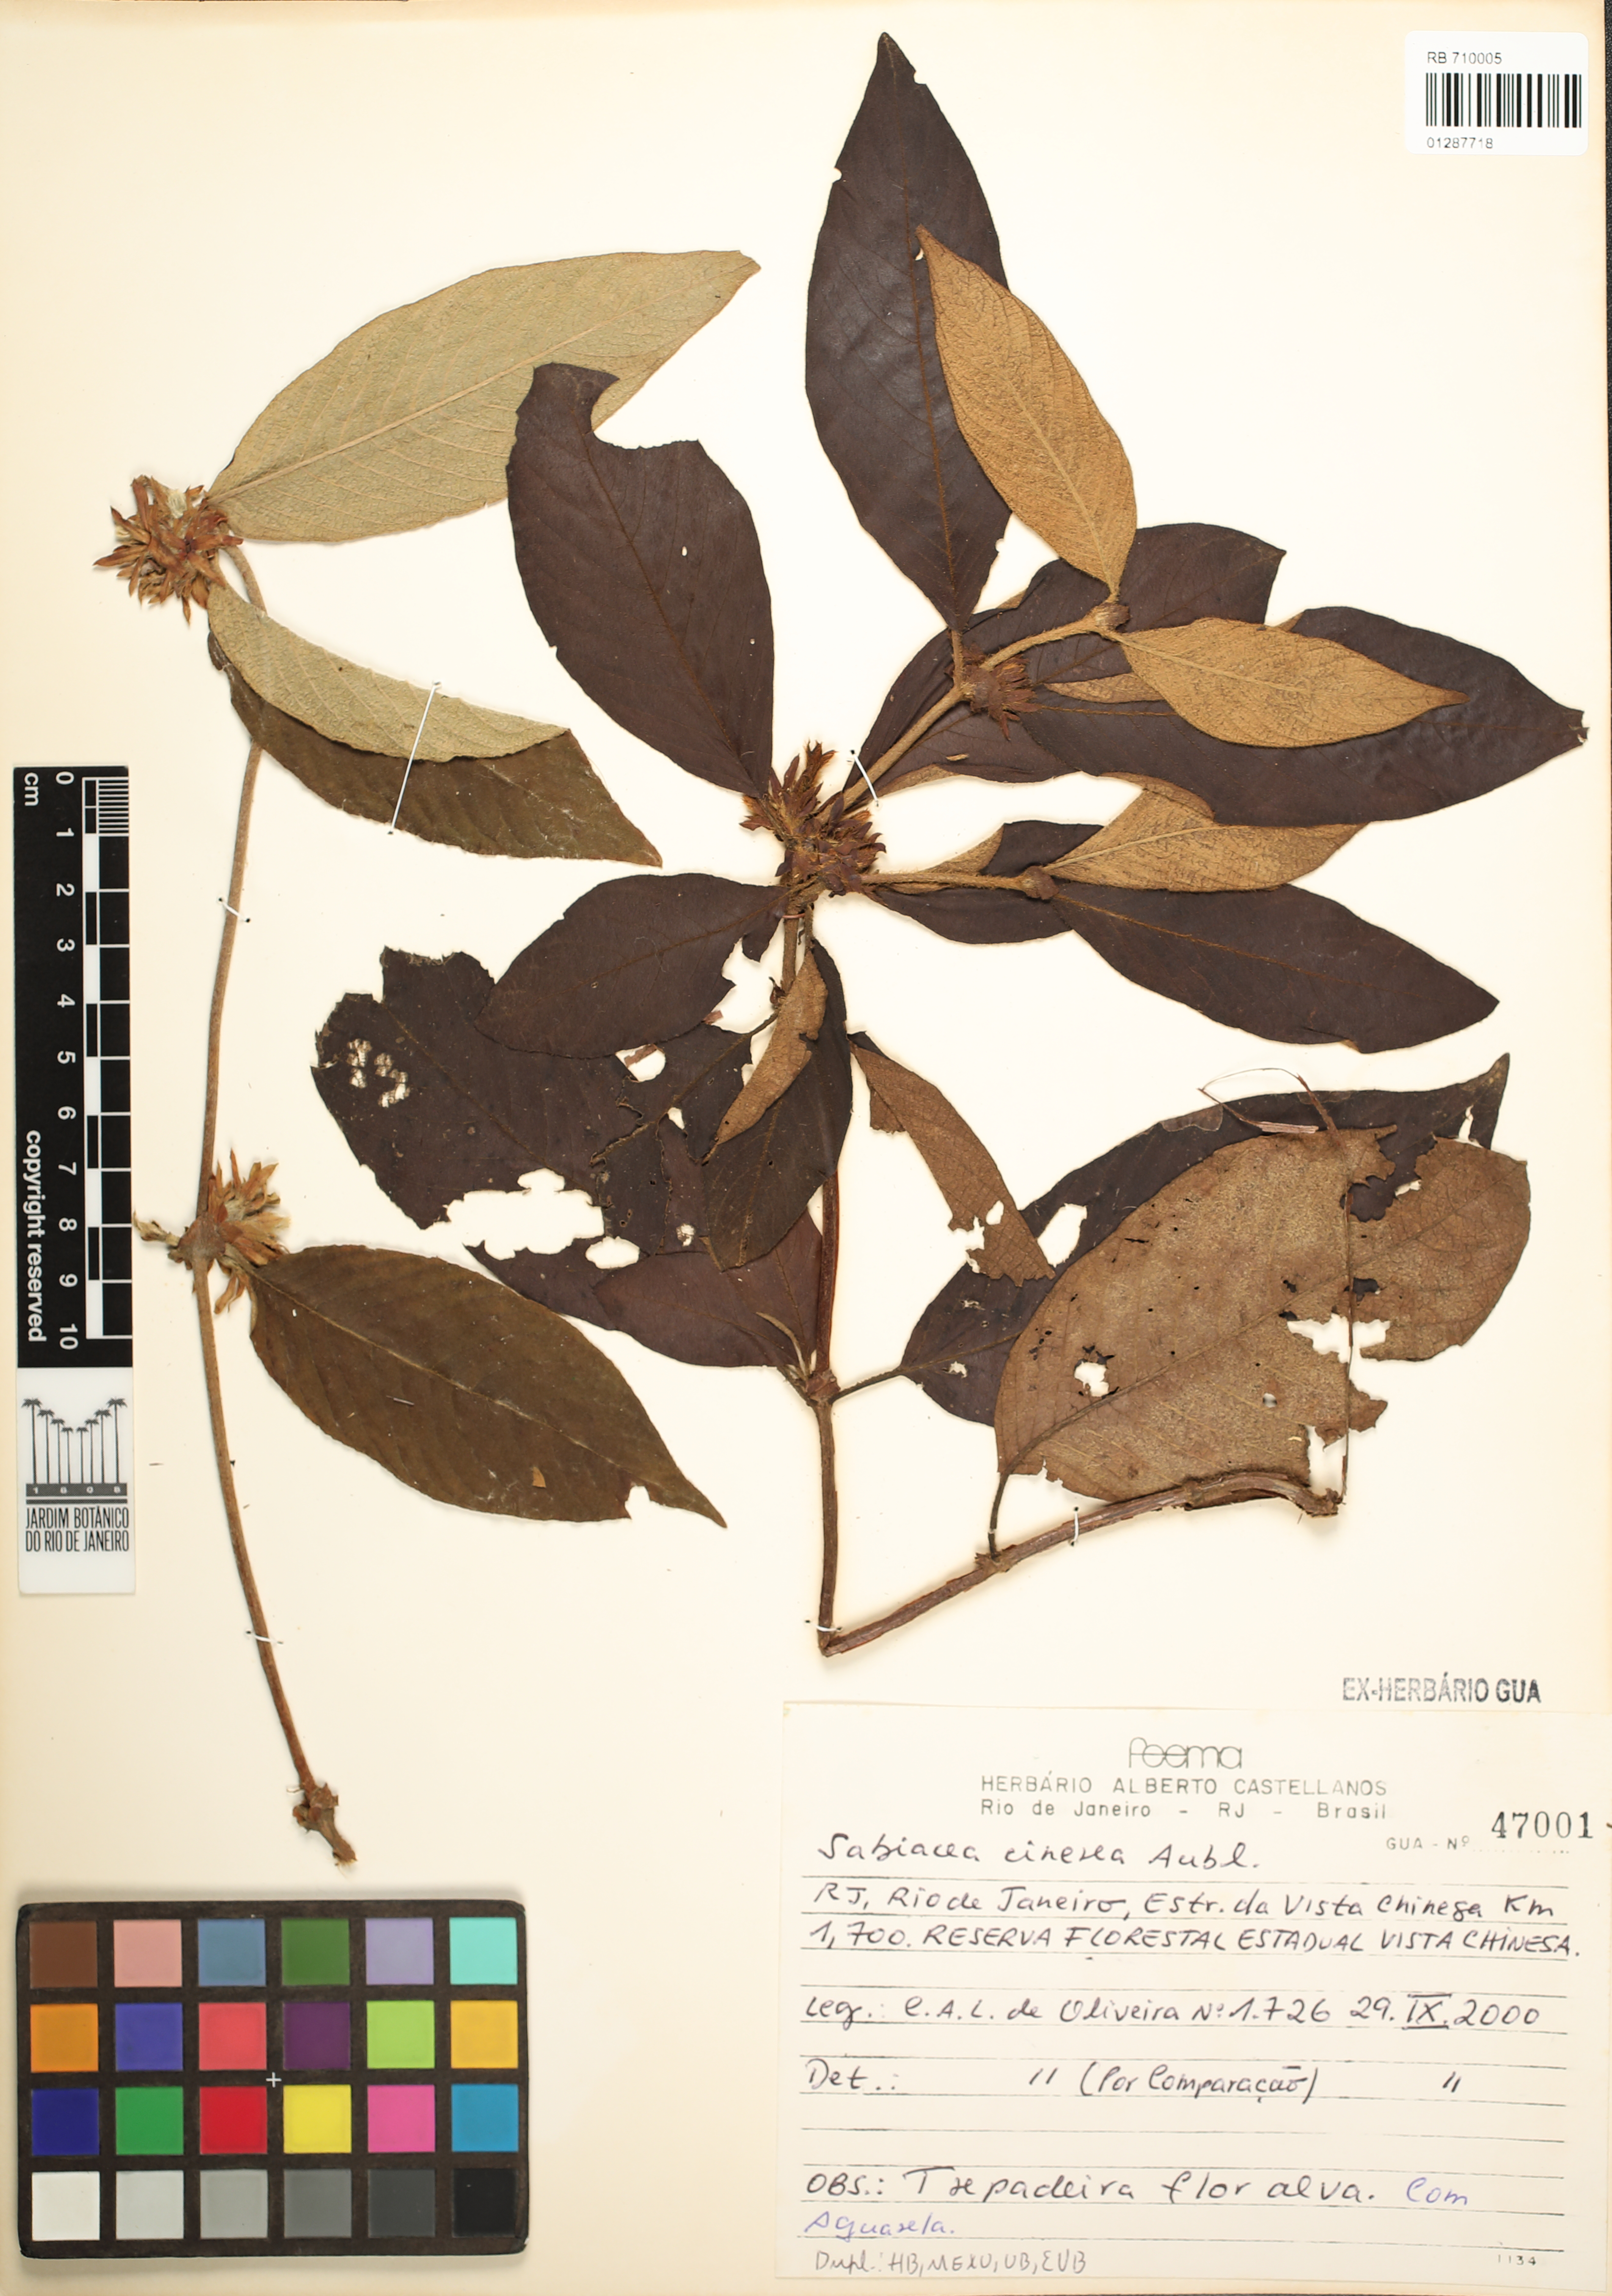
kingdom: Plantae
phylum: Tracheophyta
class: Magnoliopsida
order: Gentianales
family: Rubiaceae
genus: Sabicea
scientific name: Sabicea cinerea
